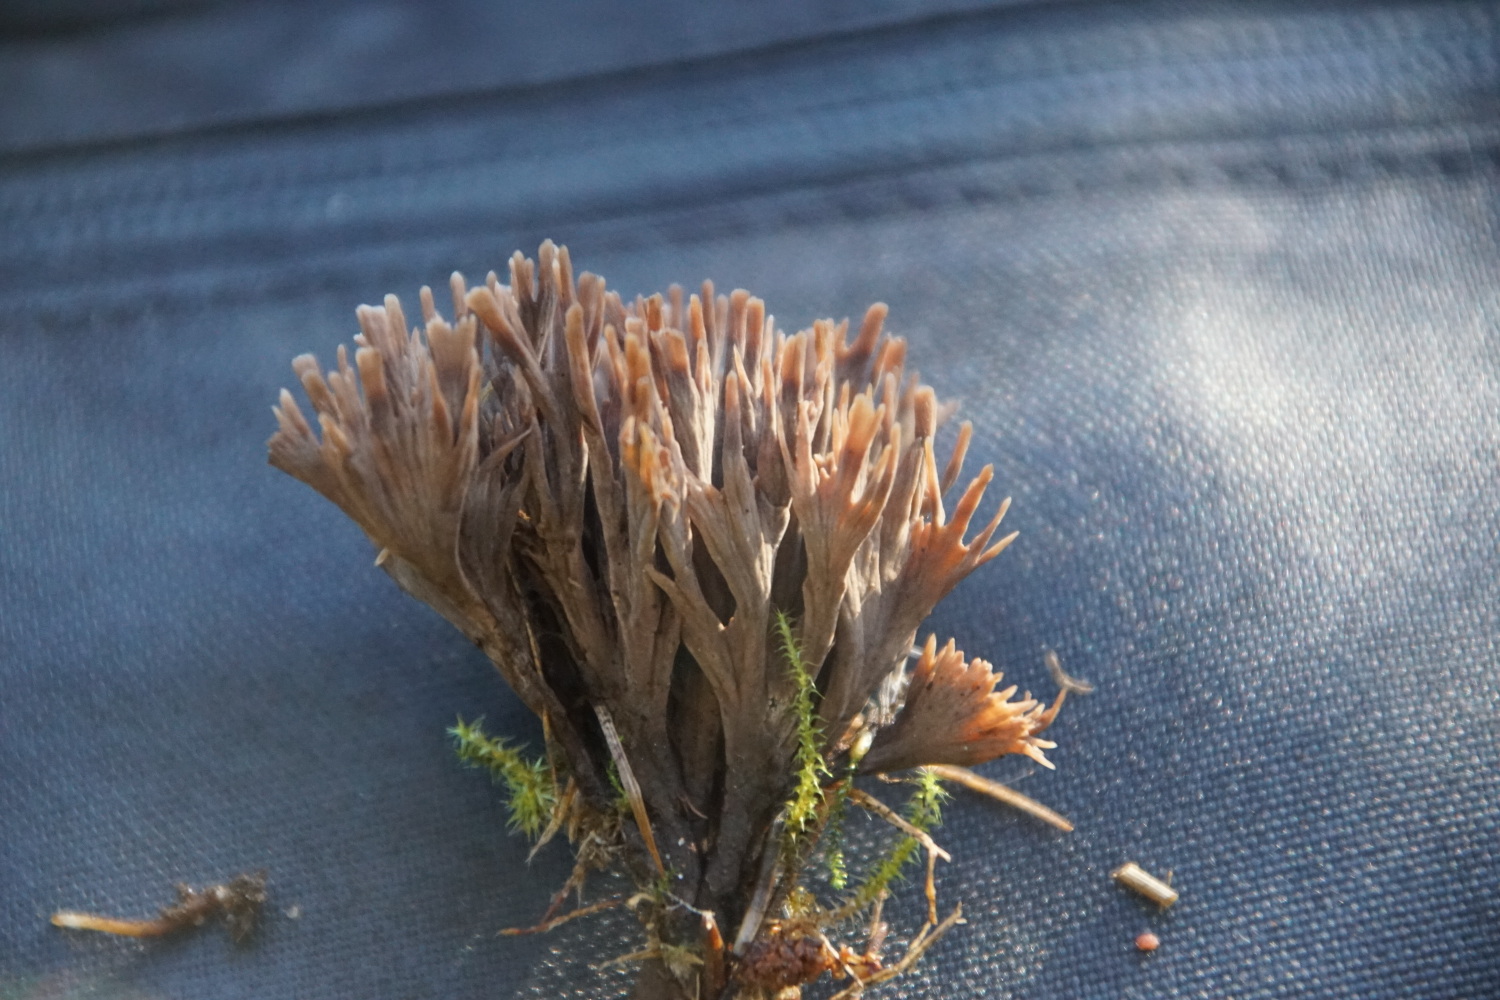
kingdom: Fungi
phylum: Basidiomycota
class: Agaricomycetes
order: Thelephorales
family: Thelephoraceae
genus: Thelephora
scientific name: Thelephora palmata
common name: grenet frynsesvamp
